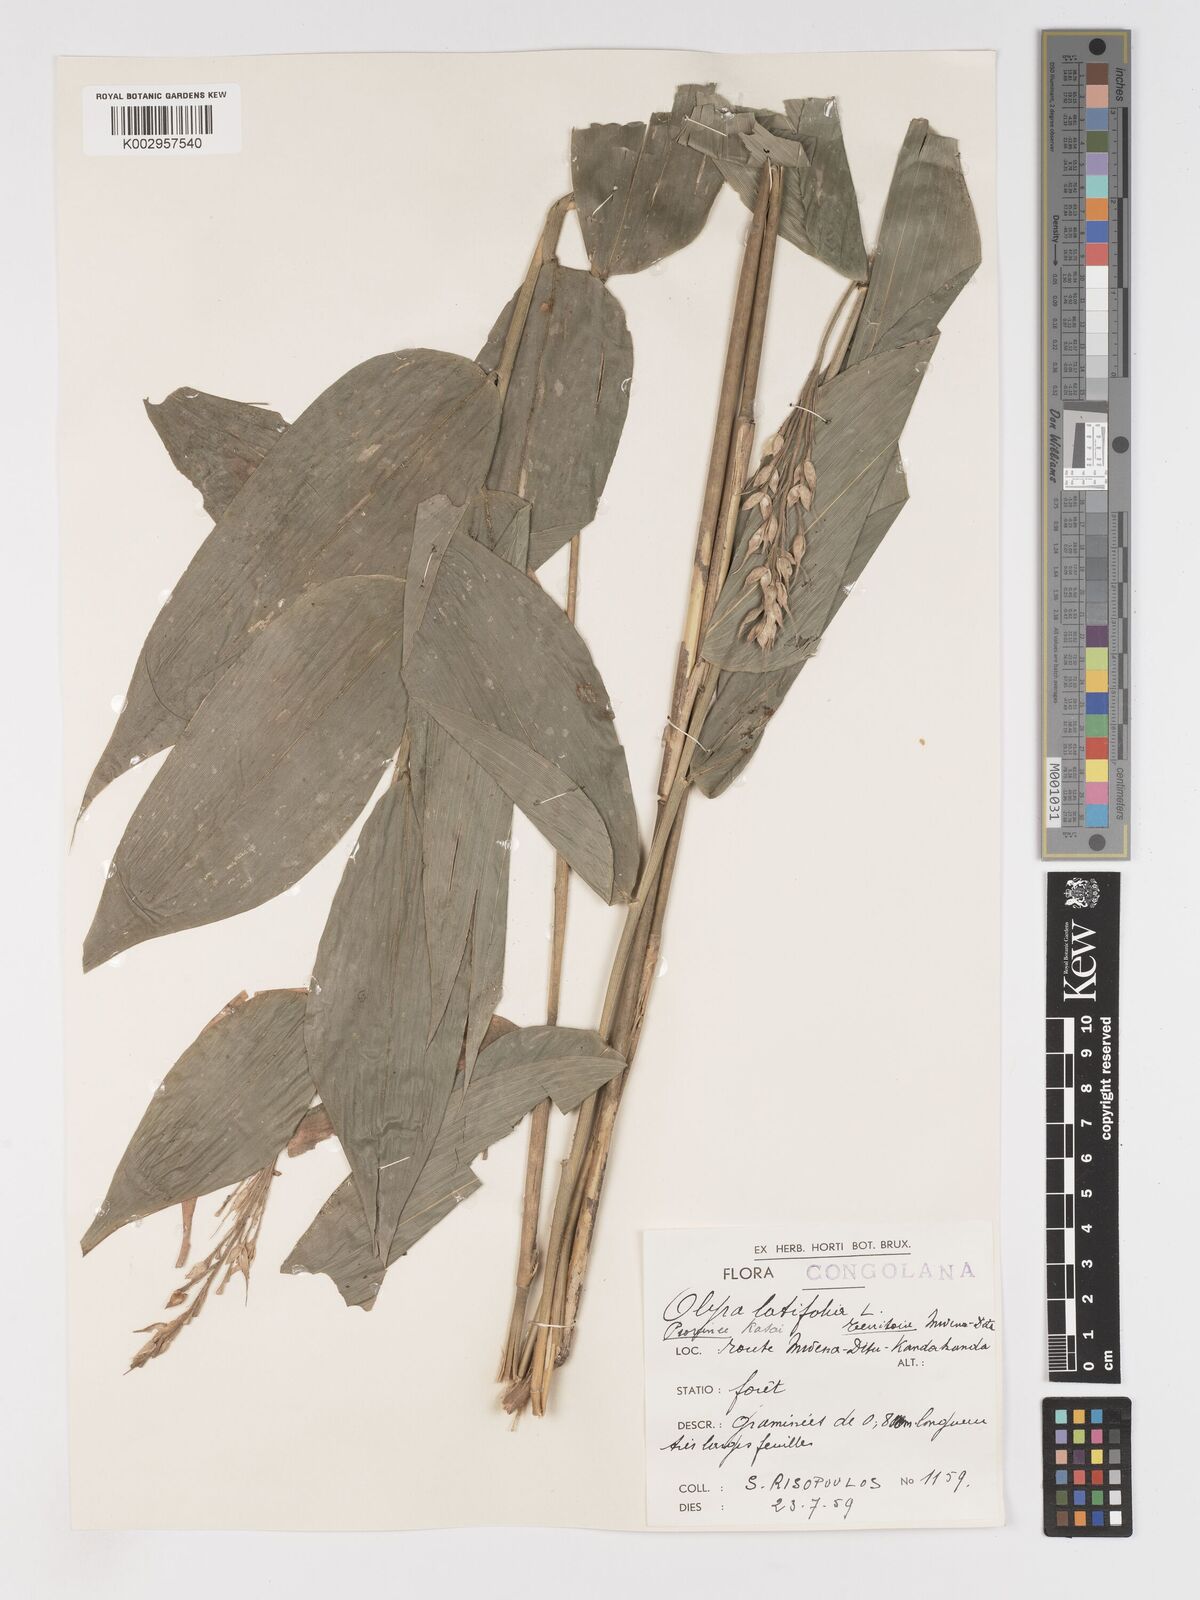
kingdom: Plantae
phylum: Tracheophyta
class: Liliopsida
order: Poales
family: Poaceae
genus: Olyra
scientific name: Olyra latifolia
